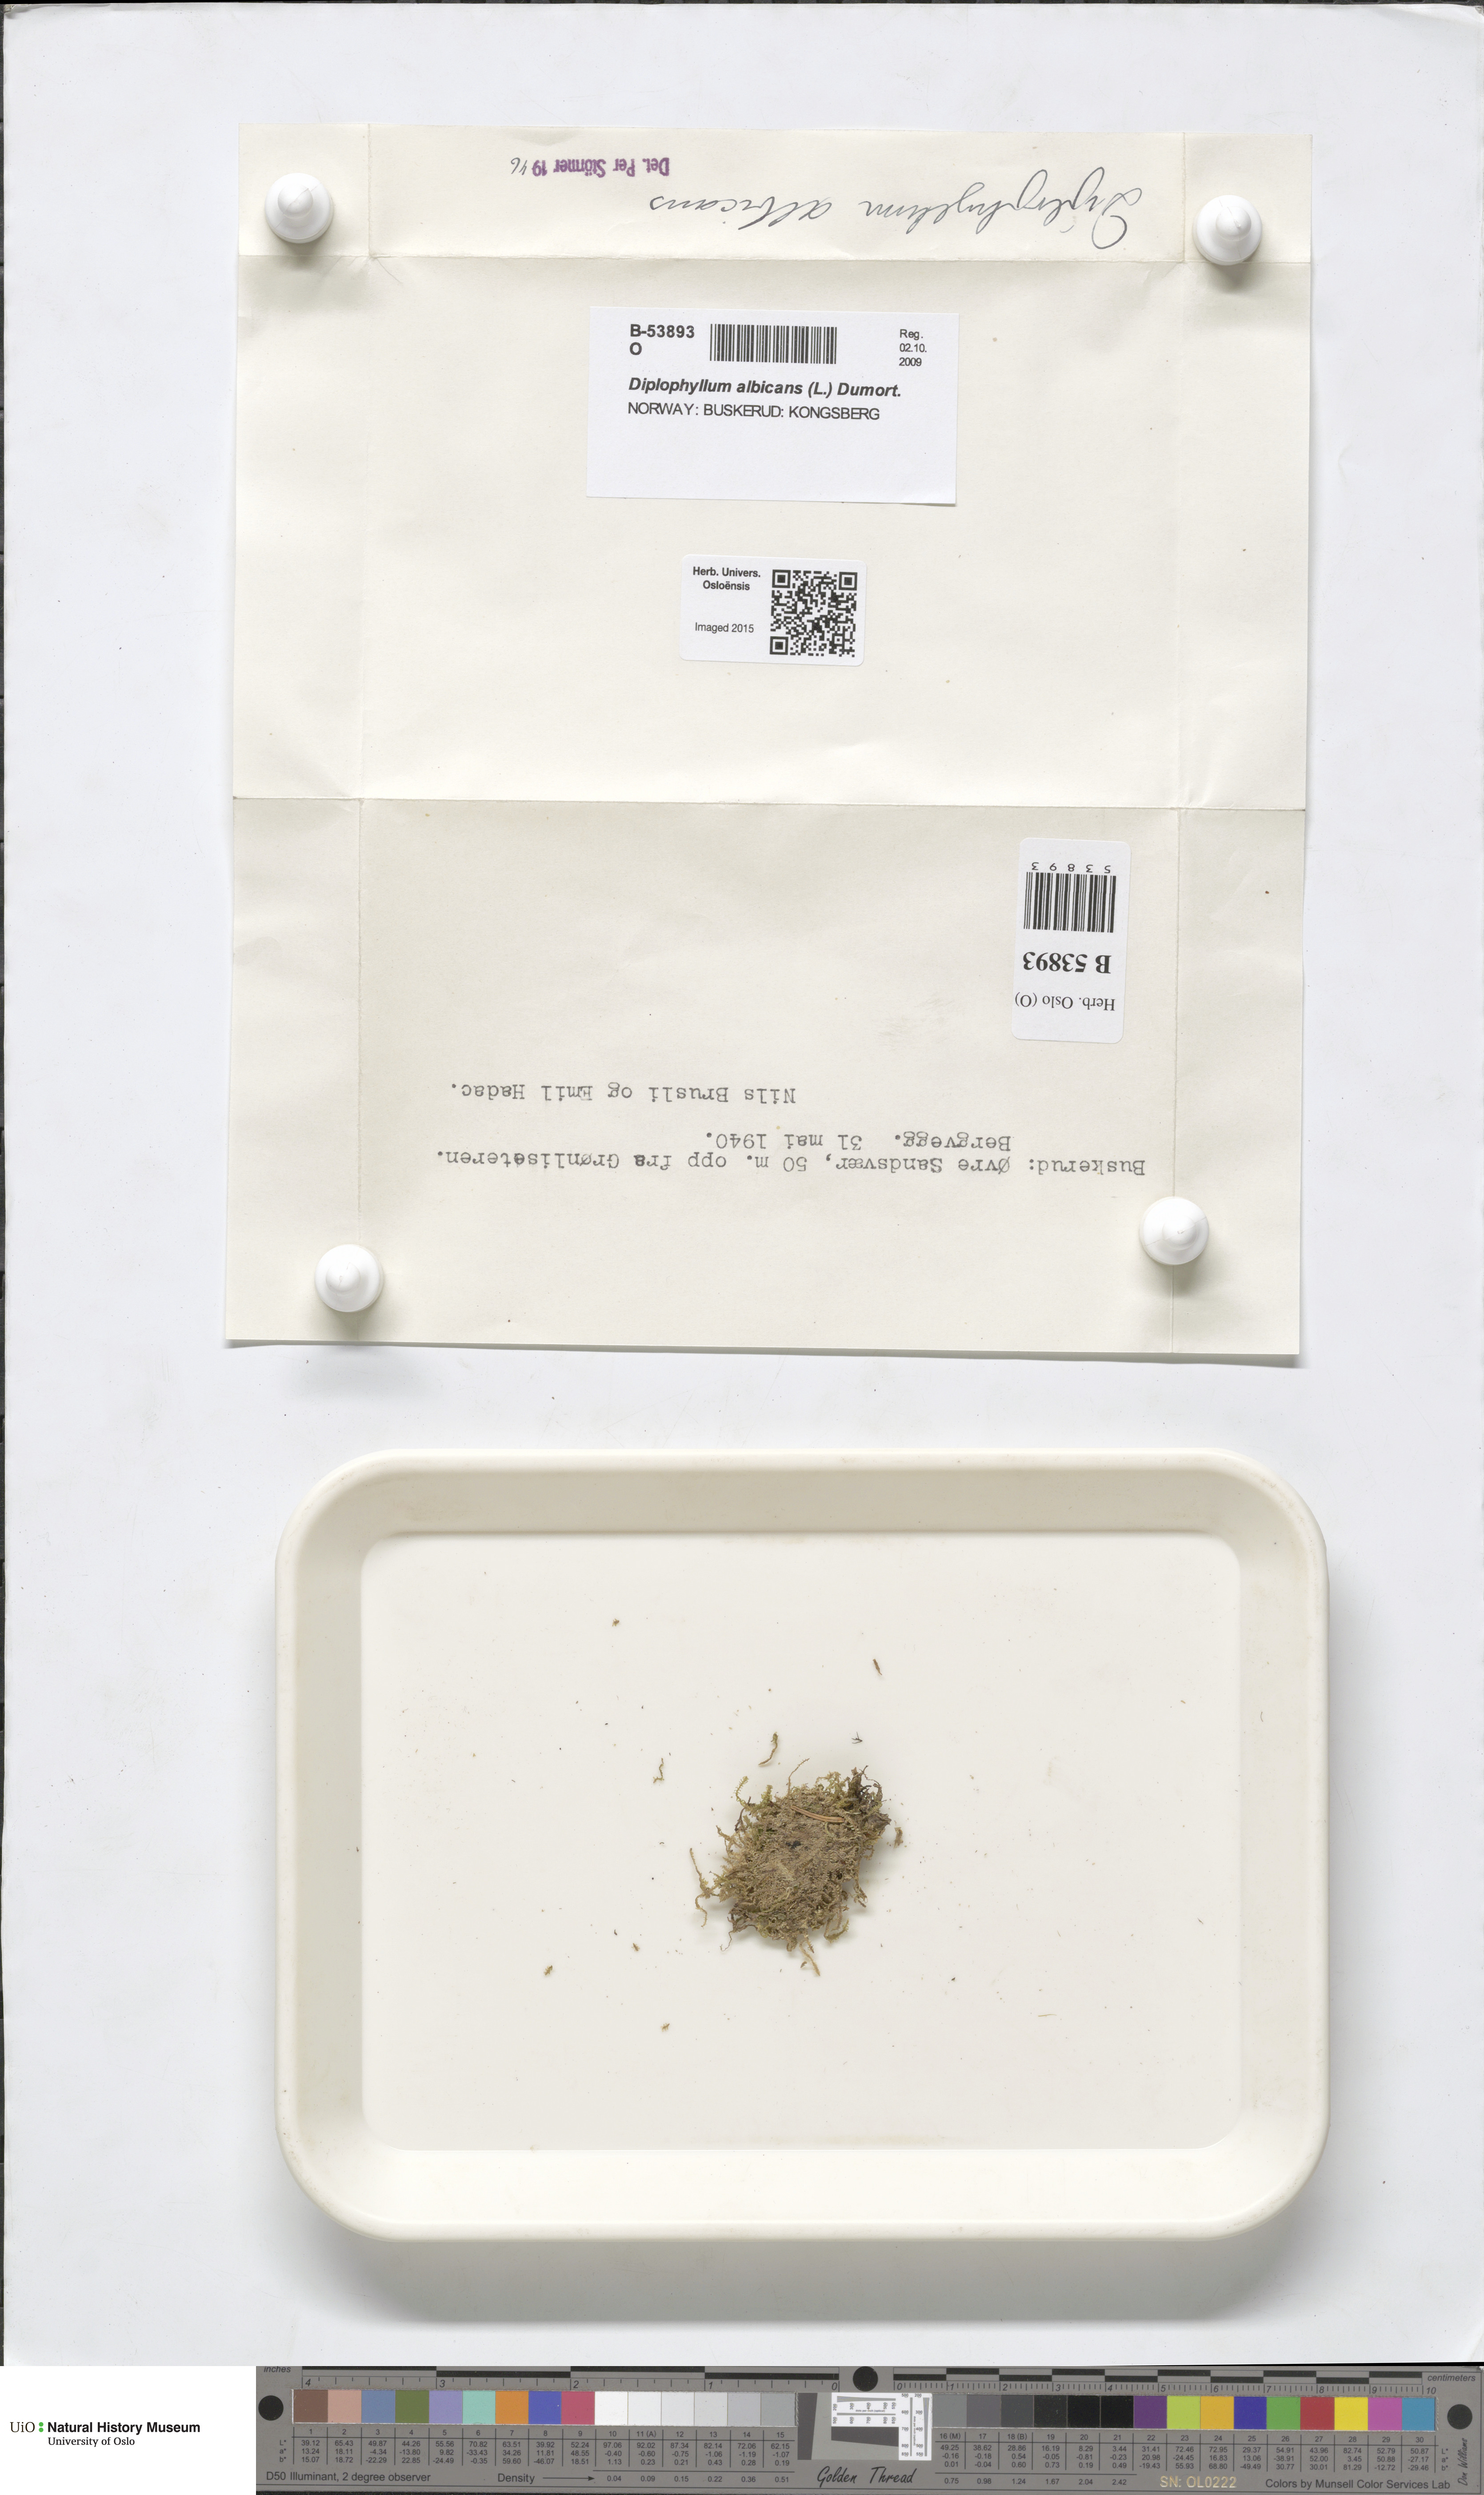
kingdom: Plantae
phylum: Marchantiophyta
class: Jungermanniopsida
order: Jungermanniales
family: Scapaniaceae
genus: Diplophyllum
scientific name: Diplophyllum albicans
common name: White earwort
